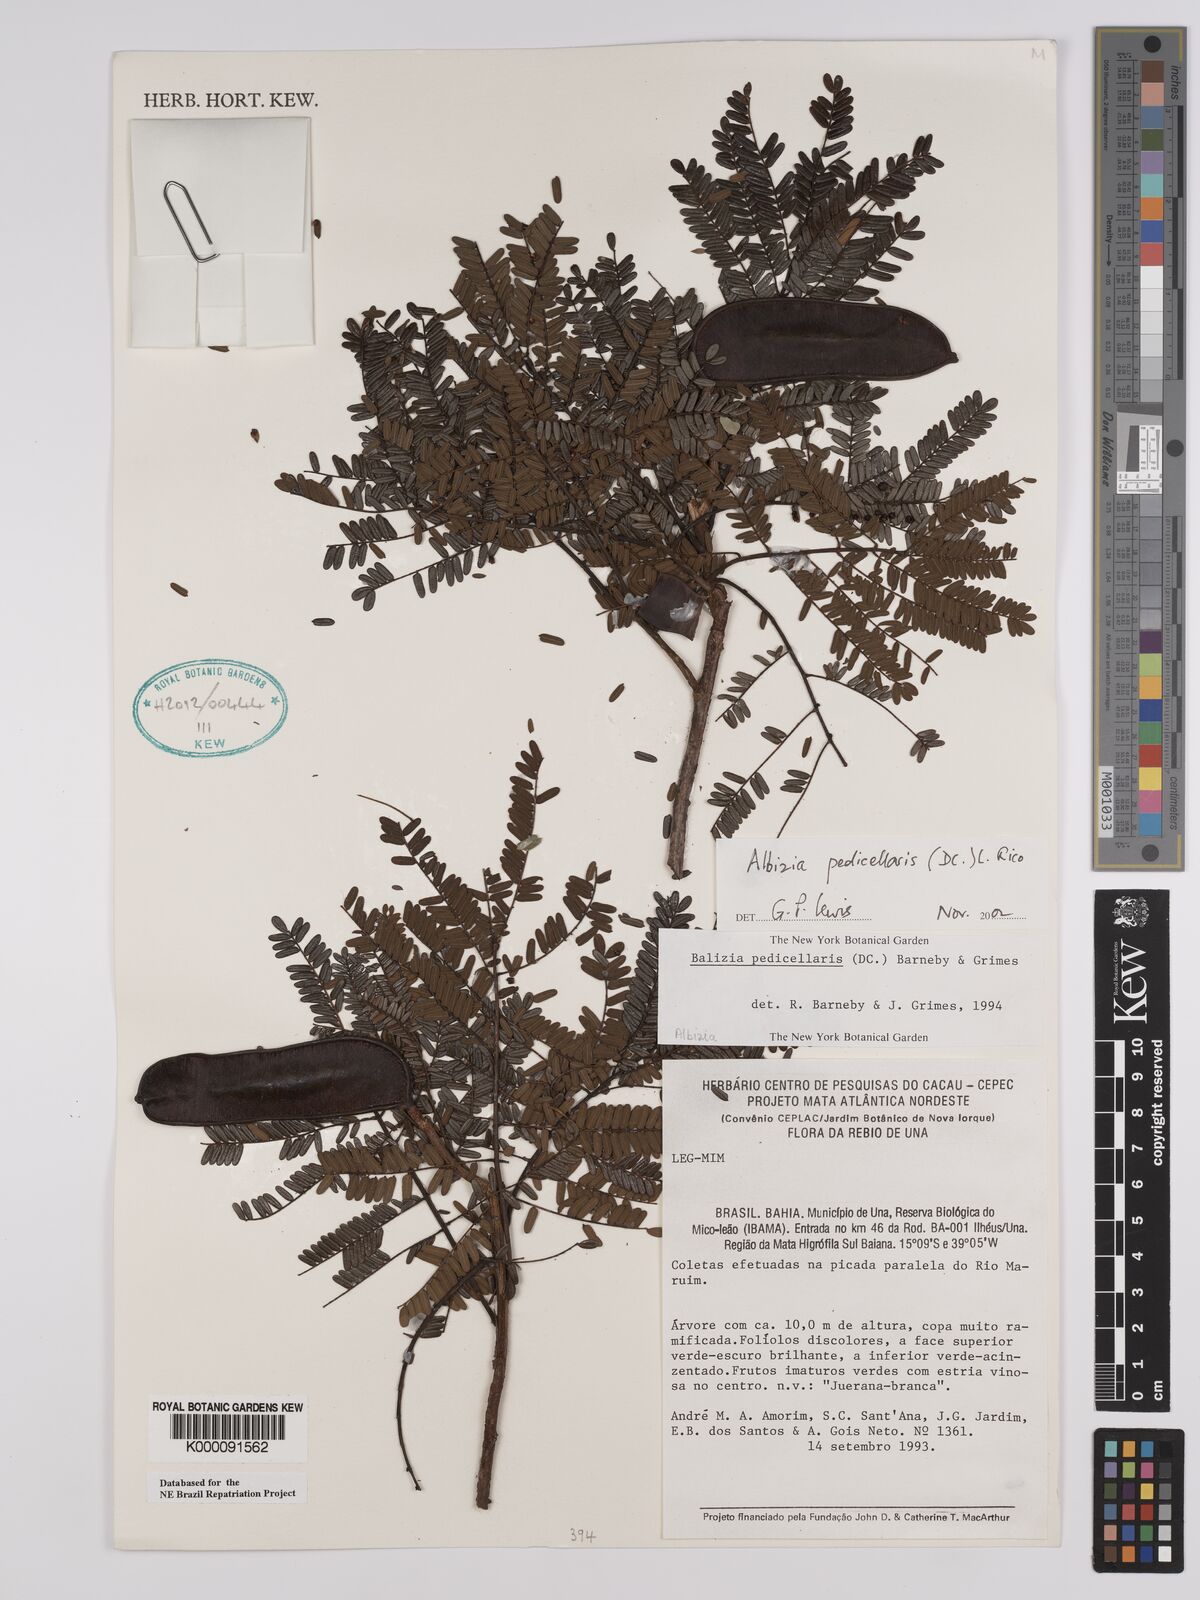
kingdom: Plantae
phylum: Tracheophyta
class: Magnoliopsida
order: Fabales
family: Fabaceae
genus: Balizia
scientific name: Balizia pedicellaris
